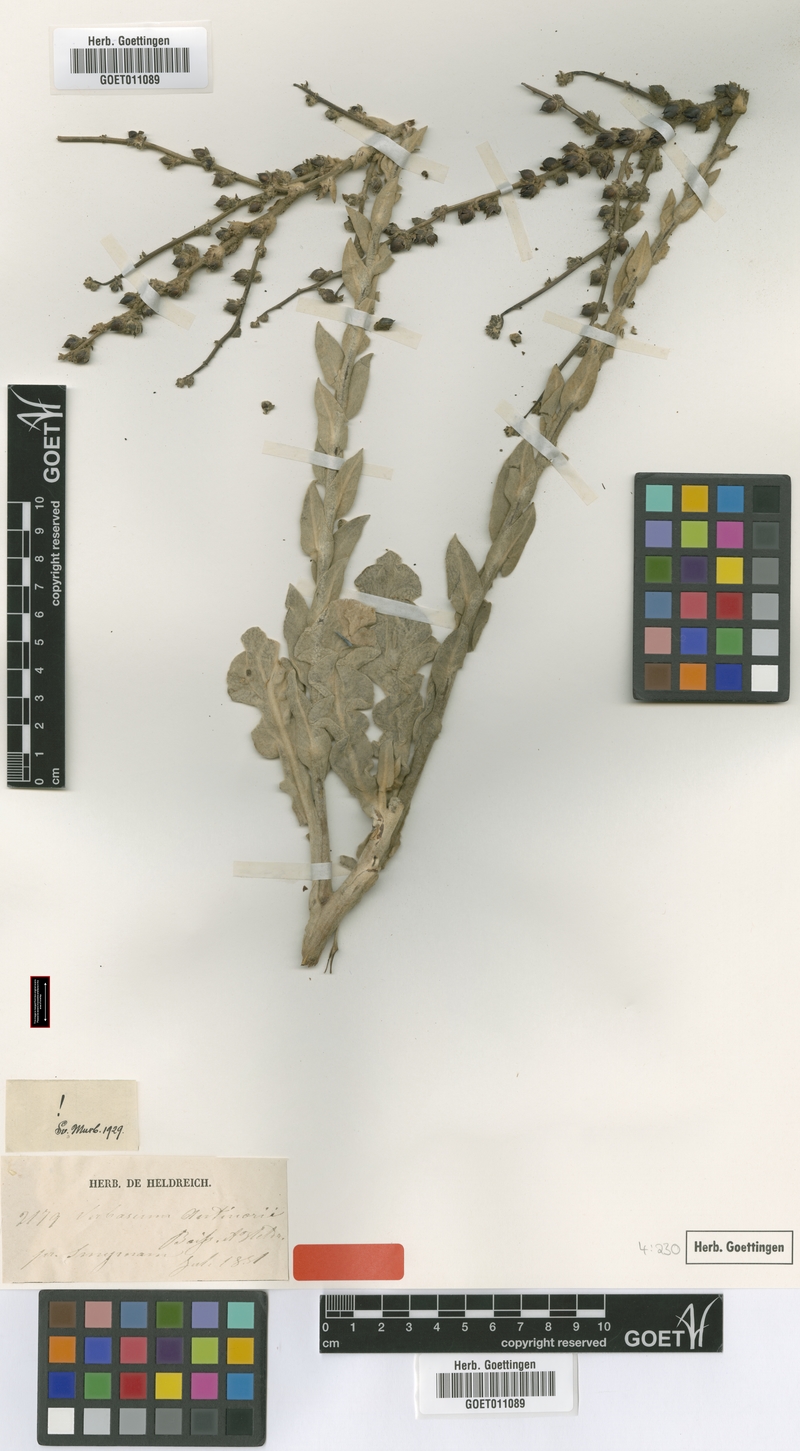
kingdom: Plantae
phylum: Tracheophyta
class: Magnoliopsida
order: Lamiales
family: Scrophulariaceae
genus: Verbascum
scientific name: Verbascum antinori
